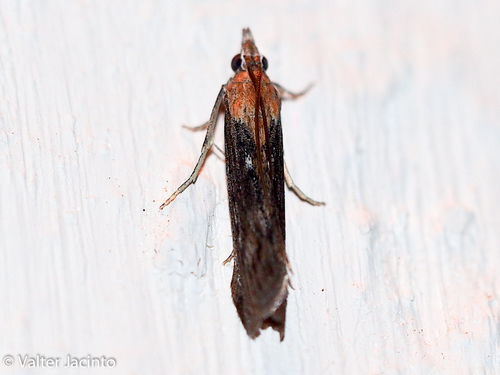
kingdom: Animalia
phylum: Arthropoda
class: Insecta
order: Lepidoptera
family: Pyralidae
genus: Epischnia
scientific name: Epischnia illotella
